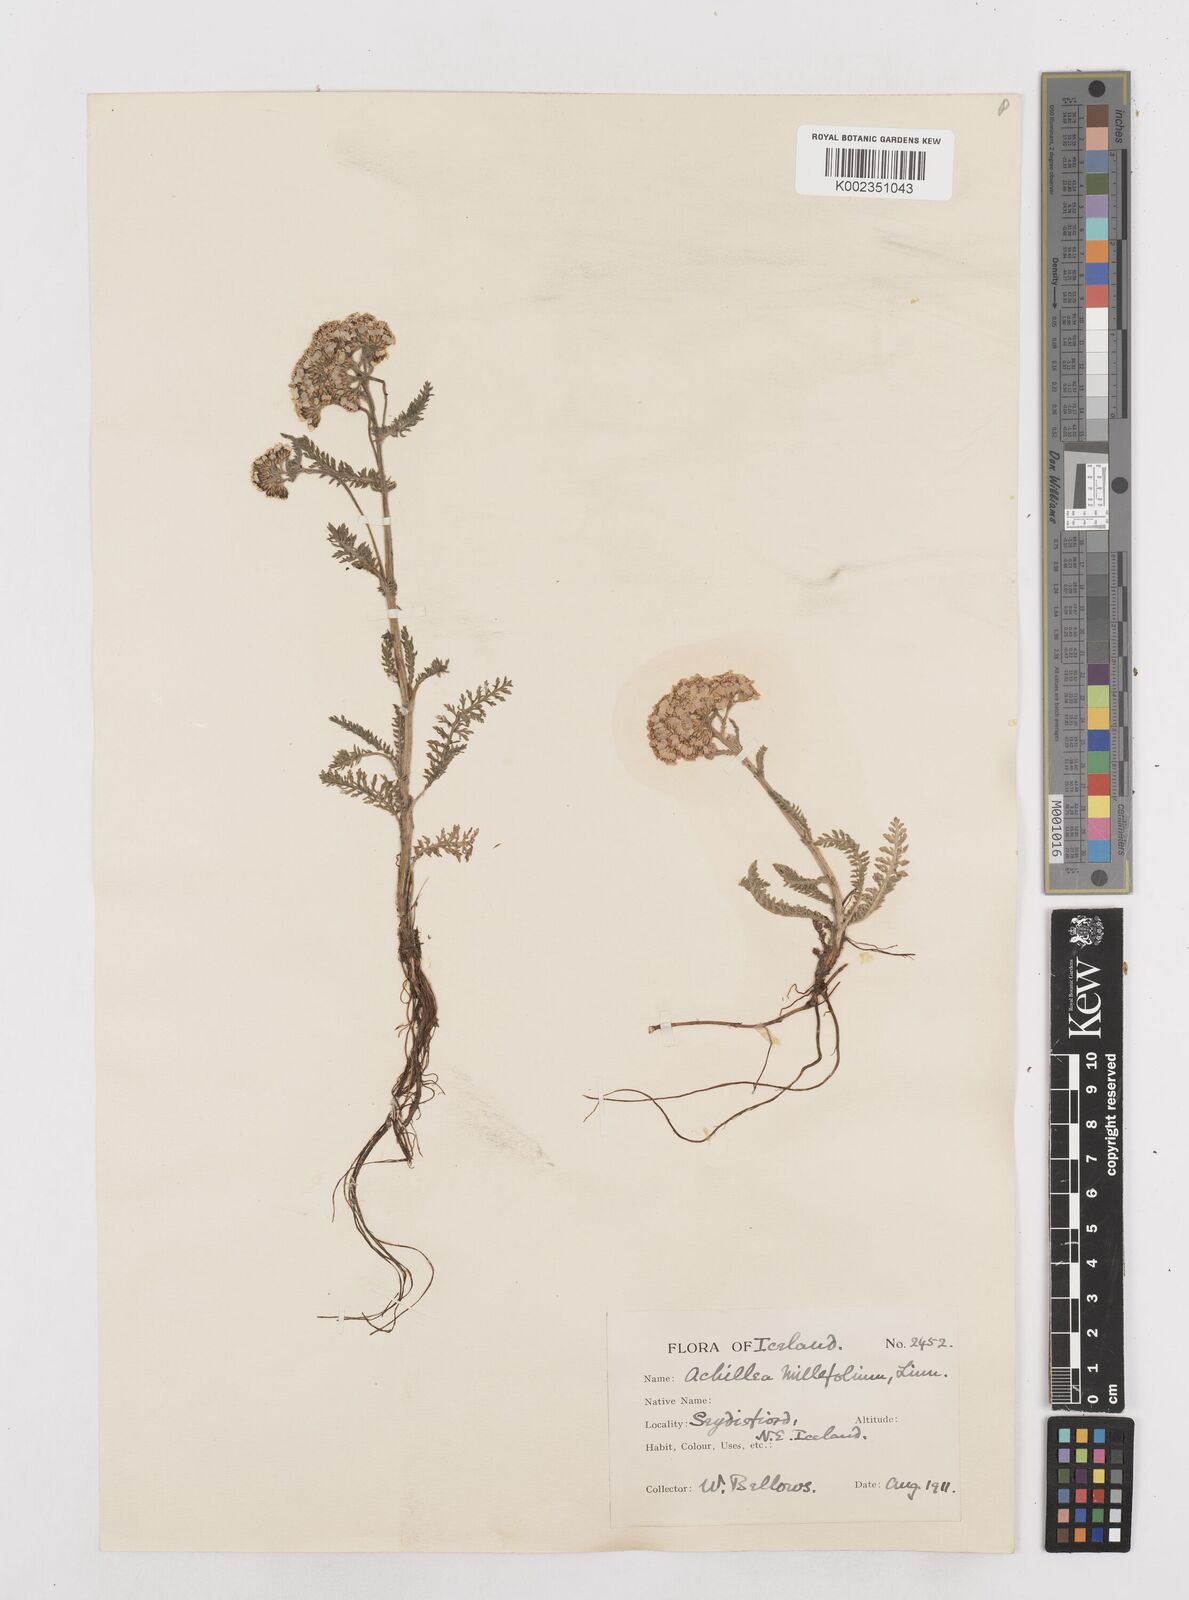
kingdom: Plantae
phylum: Tracheophyta
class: Magnoliopsida
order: Asterales
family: Asteraceae
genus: Achillea
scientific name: Achillea millefolium
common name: Yarrow
